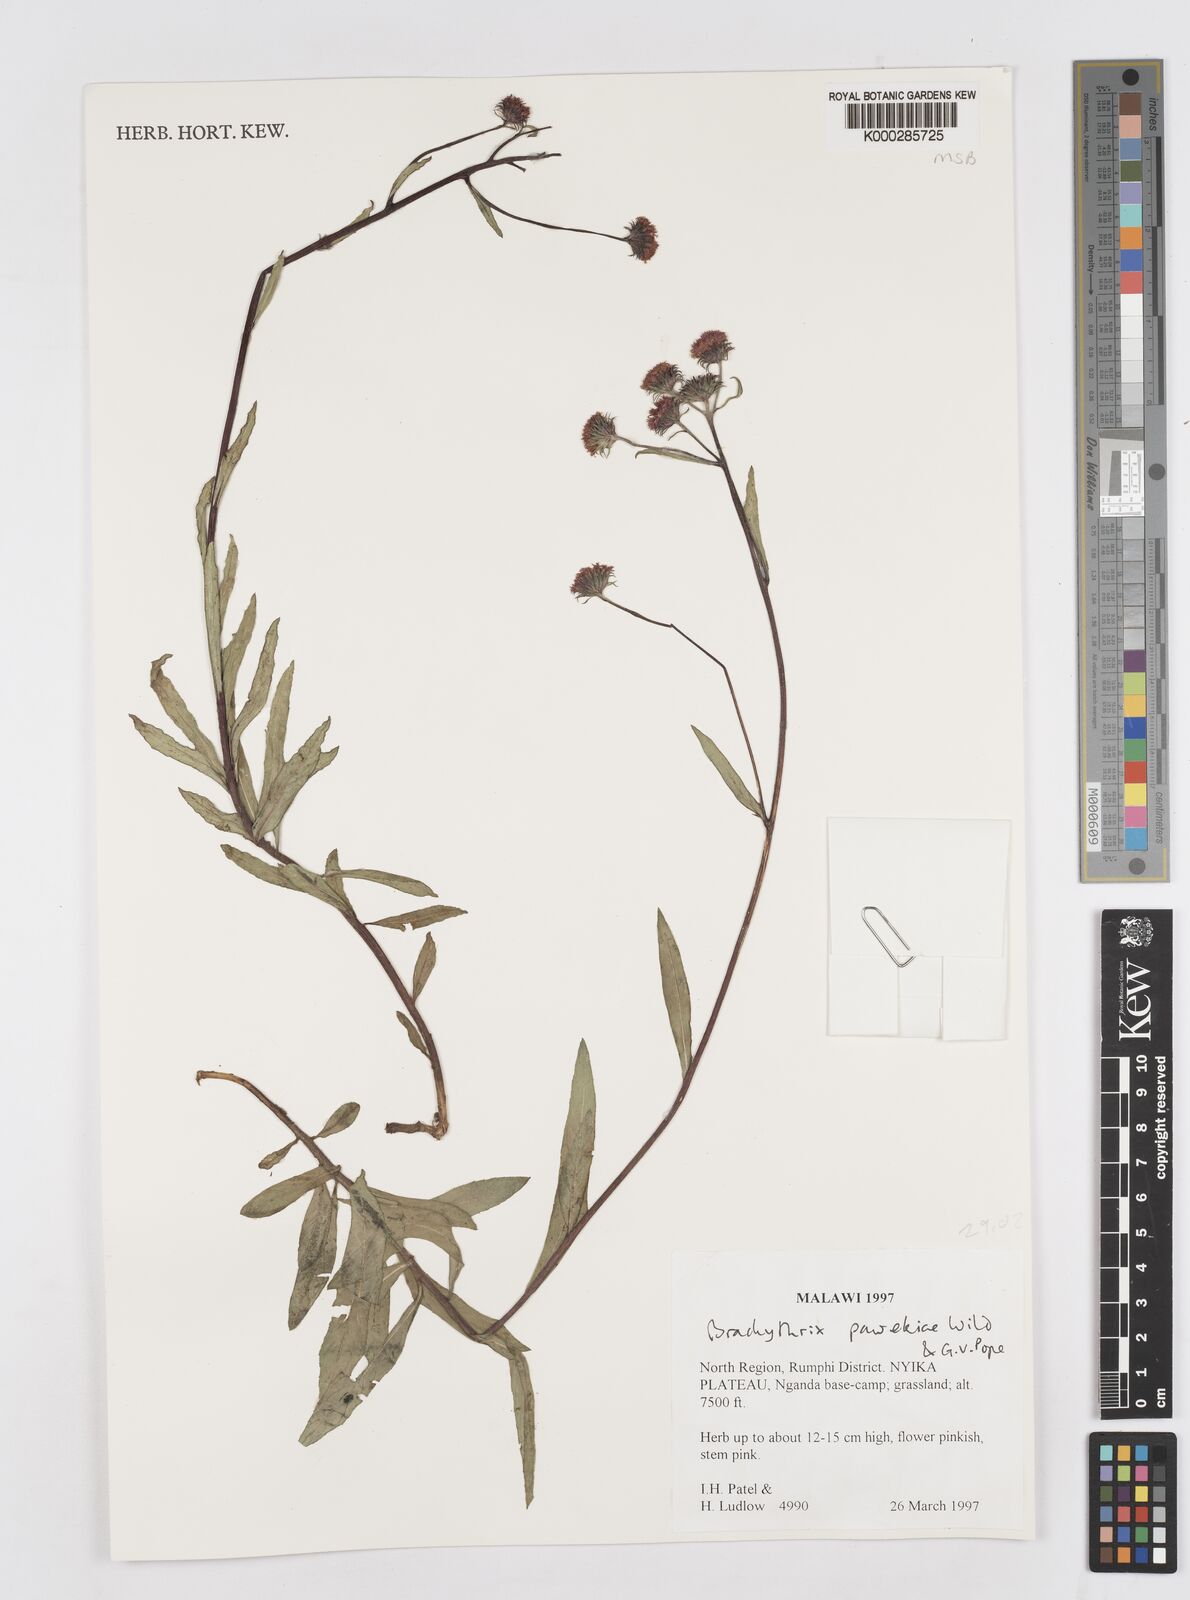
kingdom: Plantae
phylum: Tracheophyta
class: Magnoliopsida
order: Asterales
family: Asteraceae
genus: Brachythrix
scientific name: Brachythrix pawekiae
